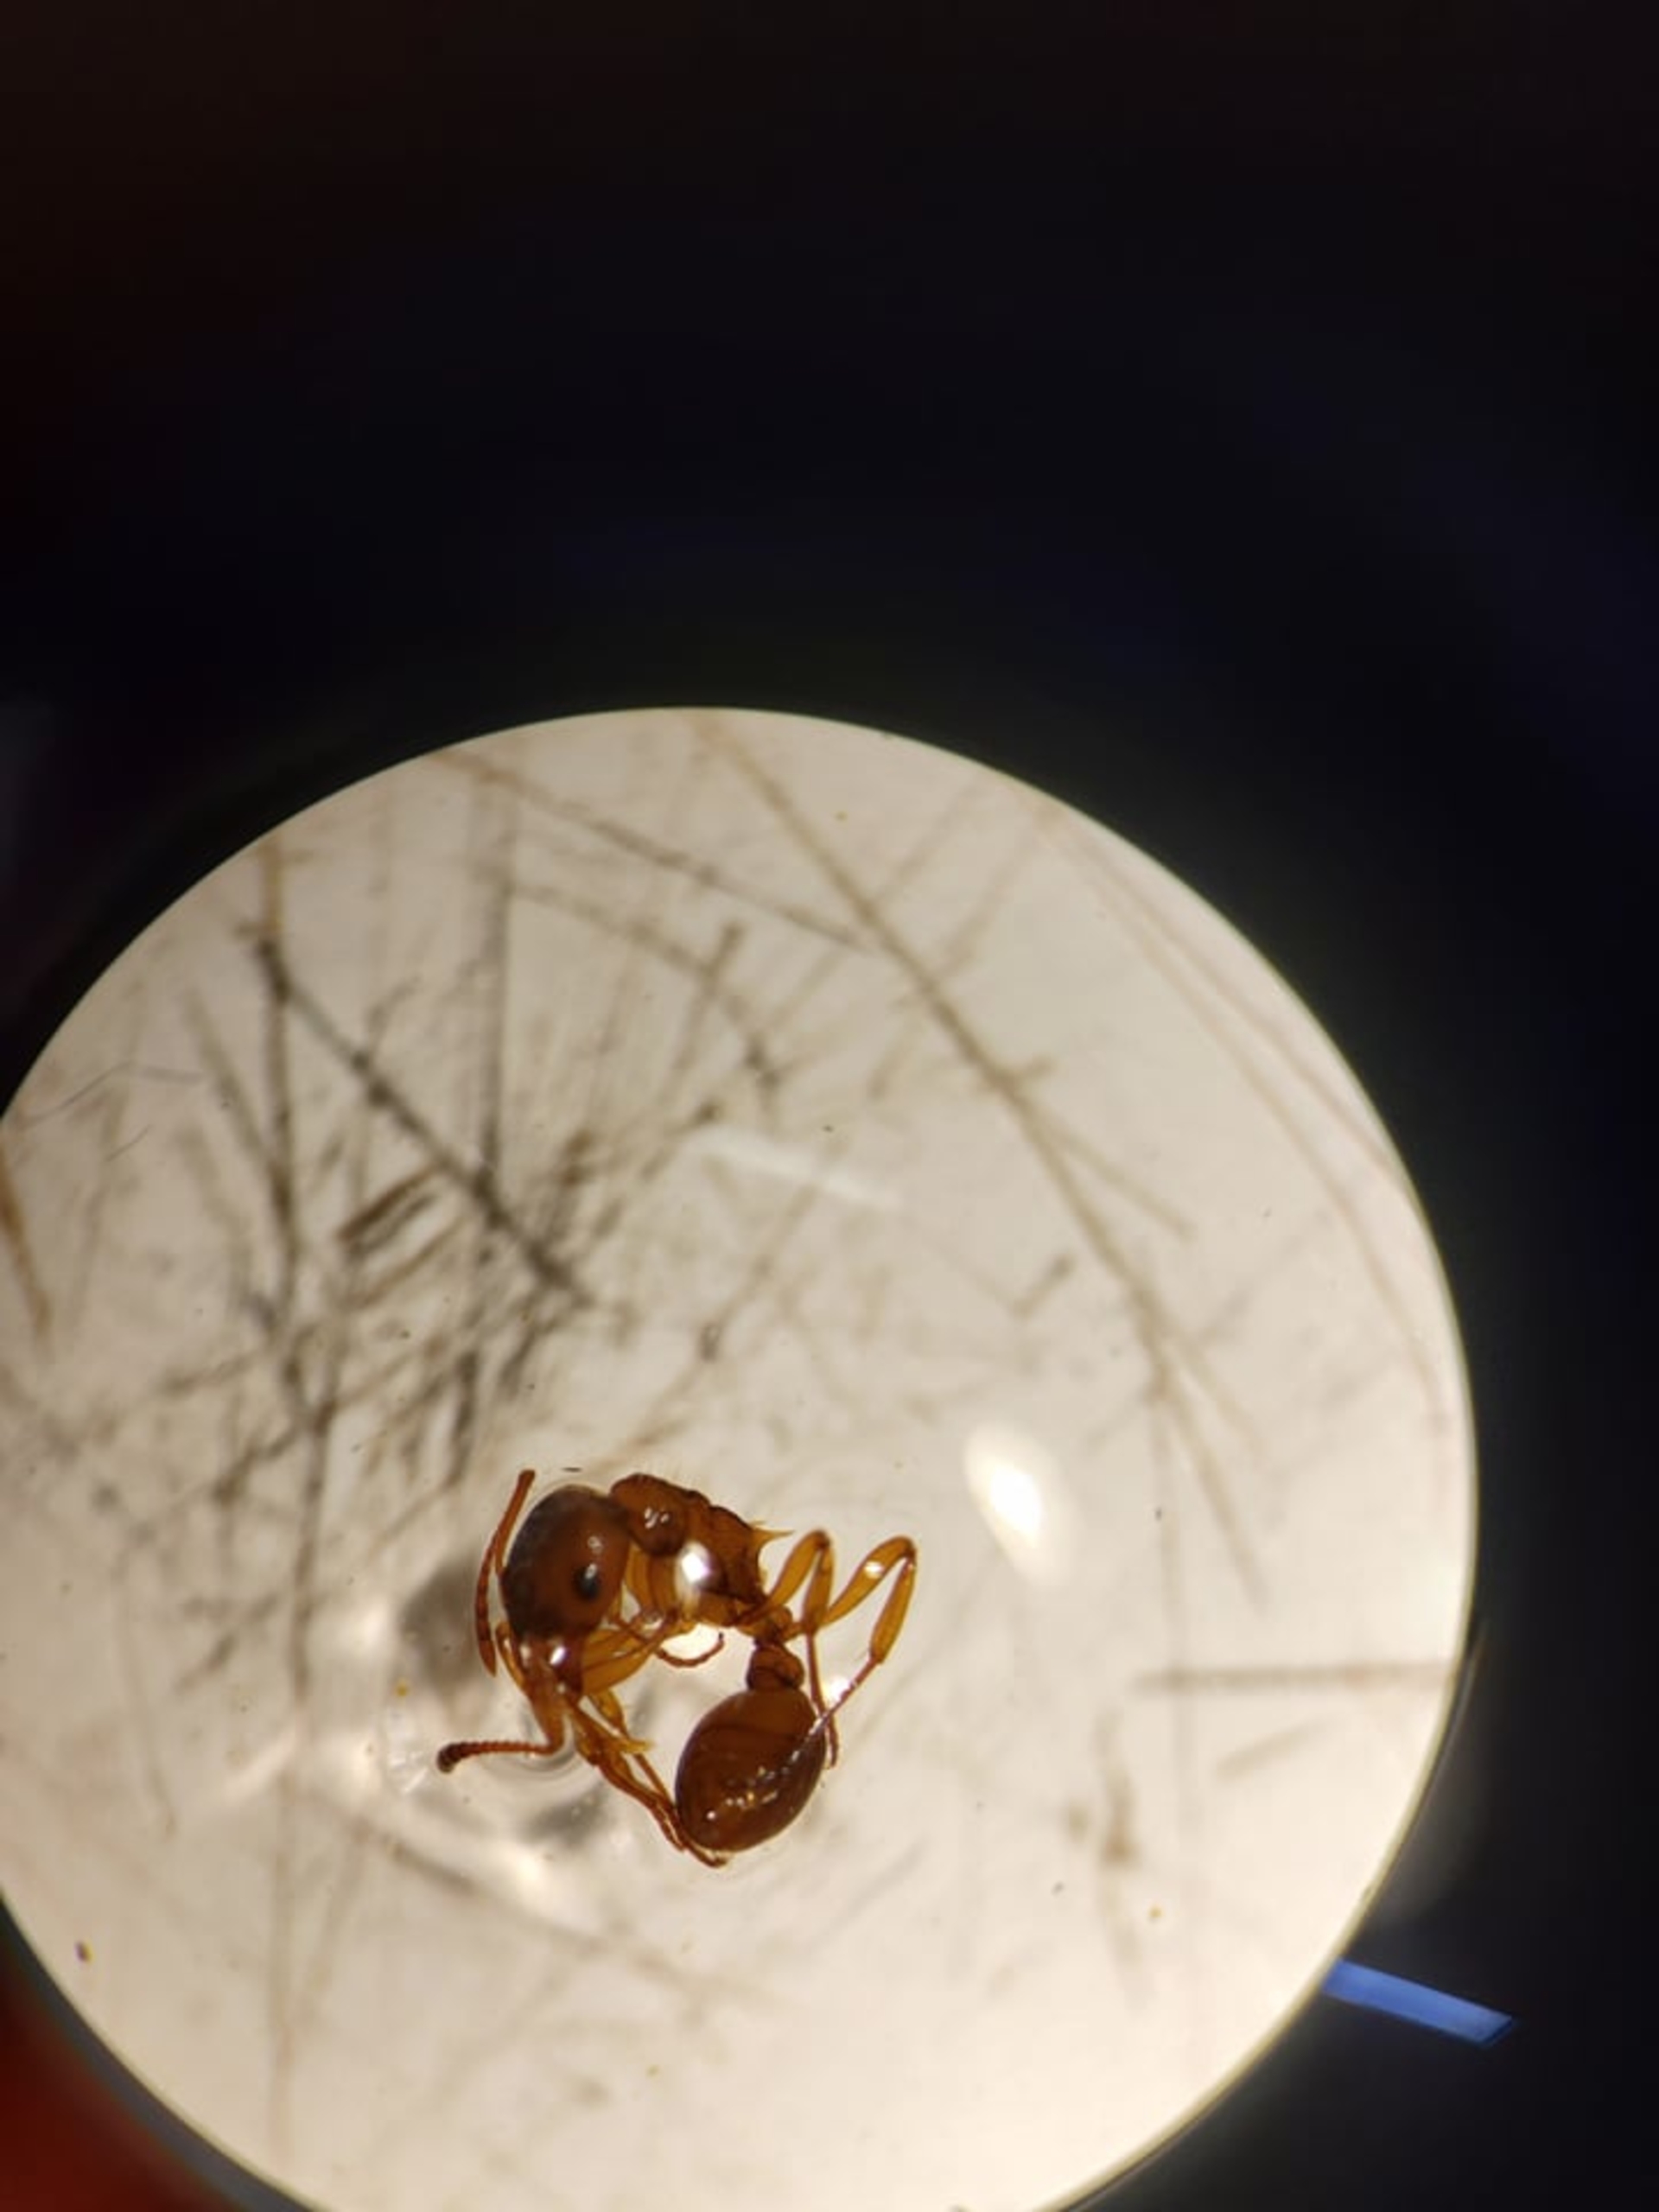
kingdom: Animalia
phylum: Arthropoda
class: Insecta
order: Hymenoptera
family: Formicidae
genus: Myrmica
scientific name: Myrmica ruginodis
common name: Almindelig stikmyre
